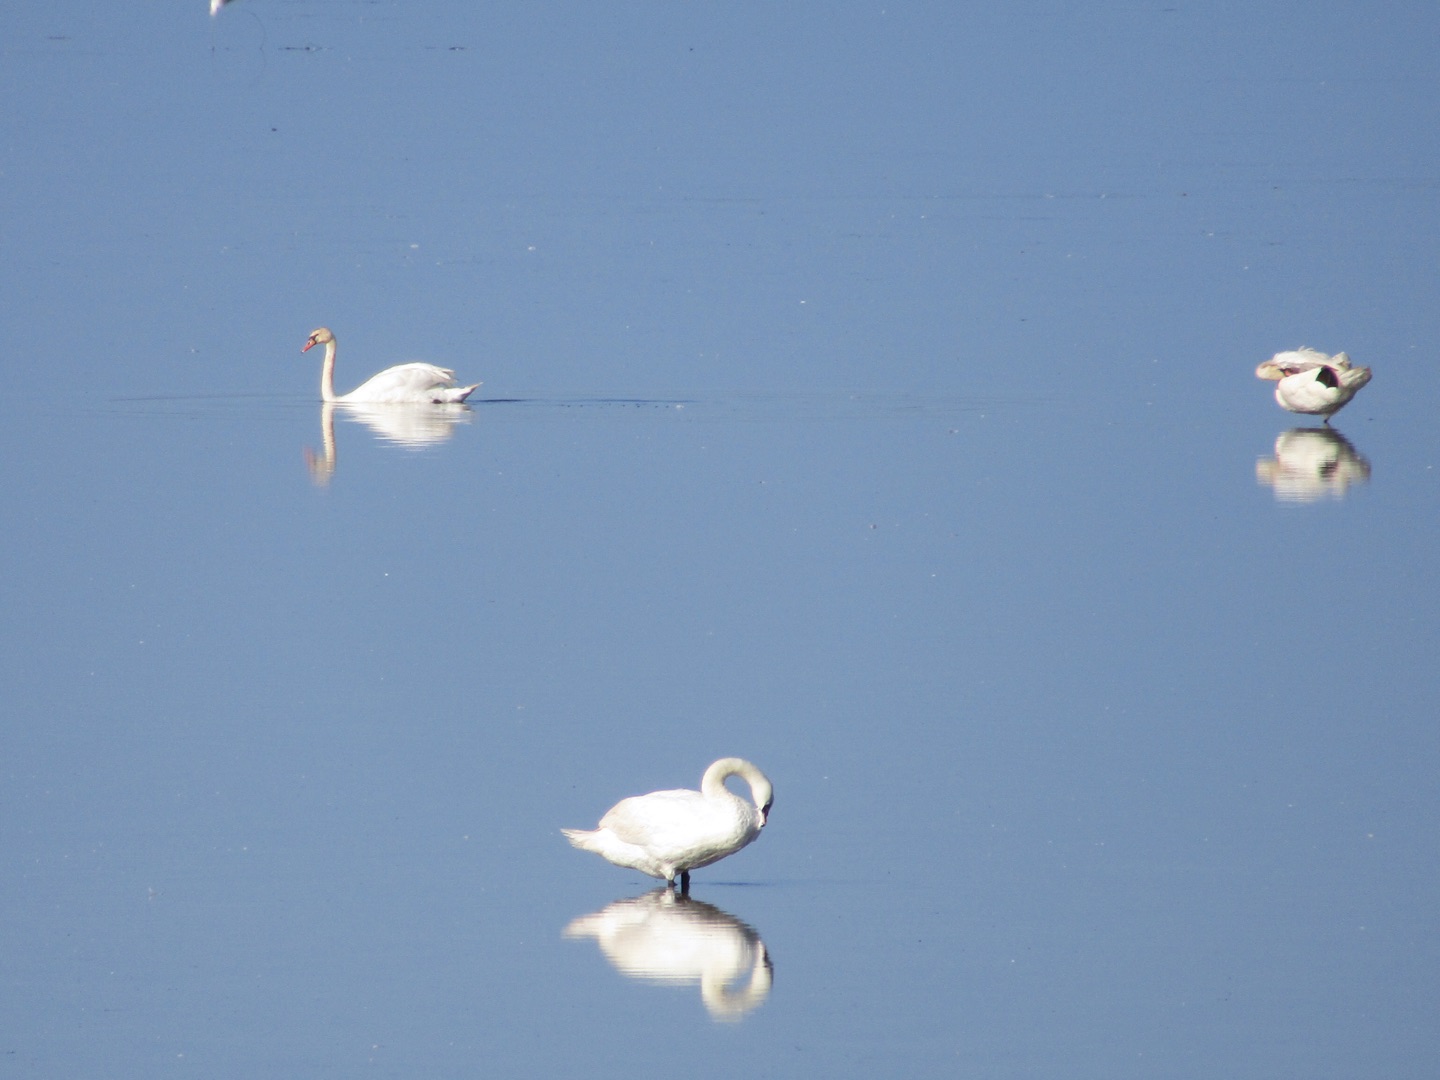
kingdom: Animalia
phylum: Chordata
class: Aves
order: Anseriformes
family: Anatidae
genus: Cygnus
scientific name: Cygnus olor
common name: Knopsvane
